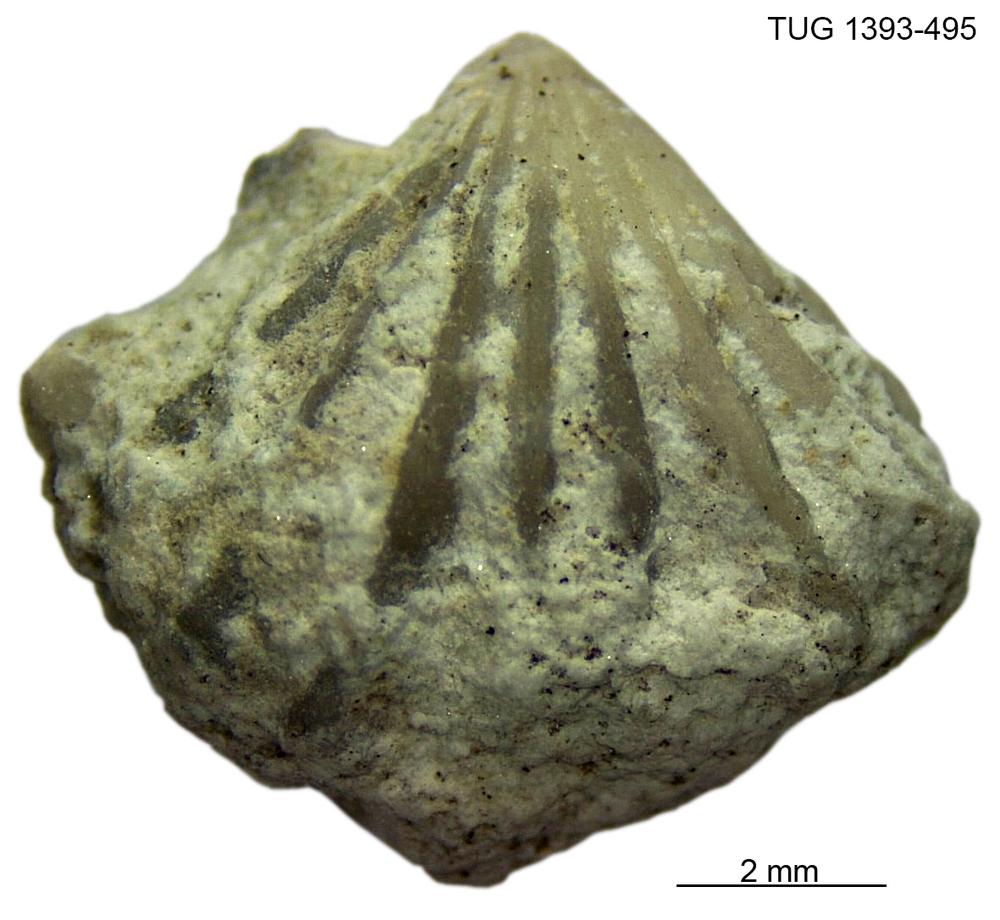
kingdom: Animalia
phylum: Brachiopoda
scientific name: Brachiopoda
